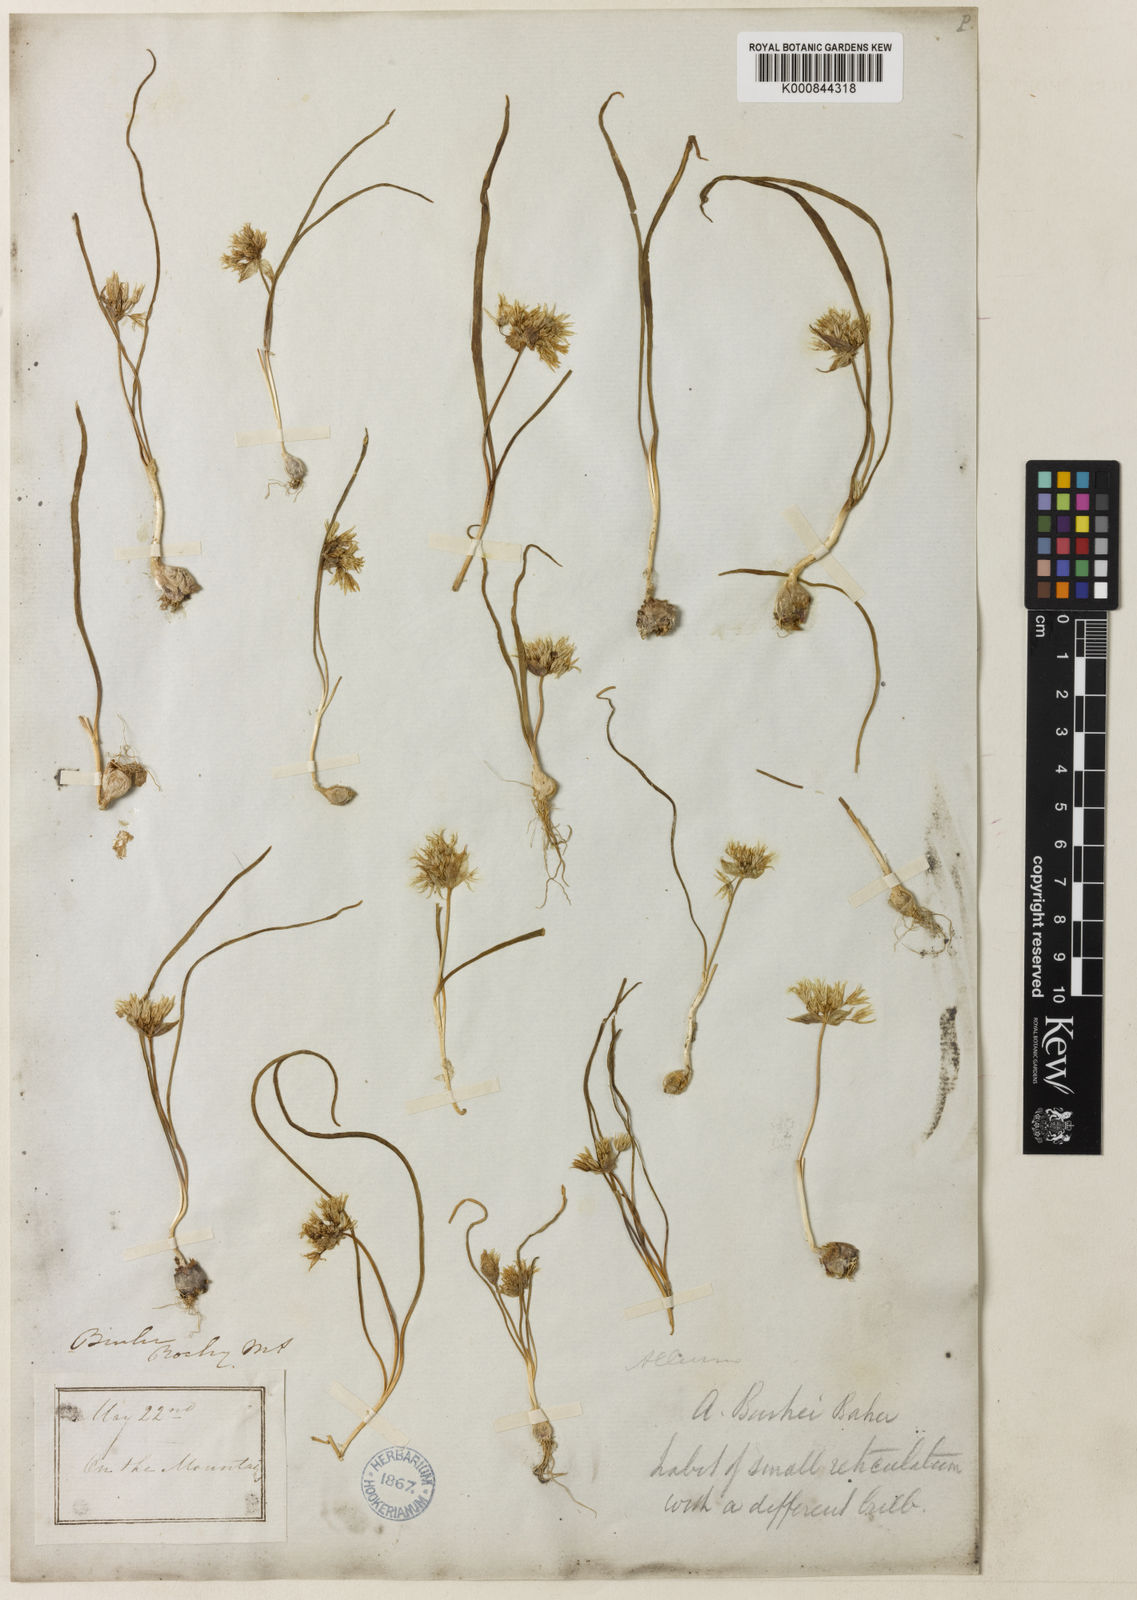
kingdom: Plantae
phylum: Tracheophyta
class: Liliopsida
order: Asparagales
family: Amaryllidaceae
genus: Allium
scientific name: Allium macrum
